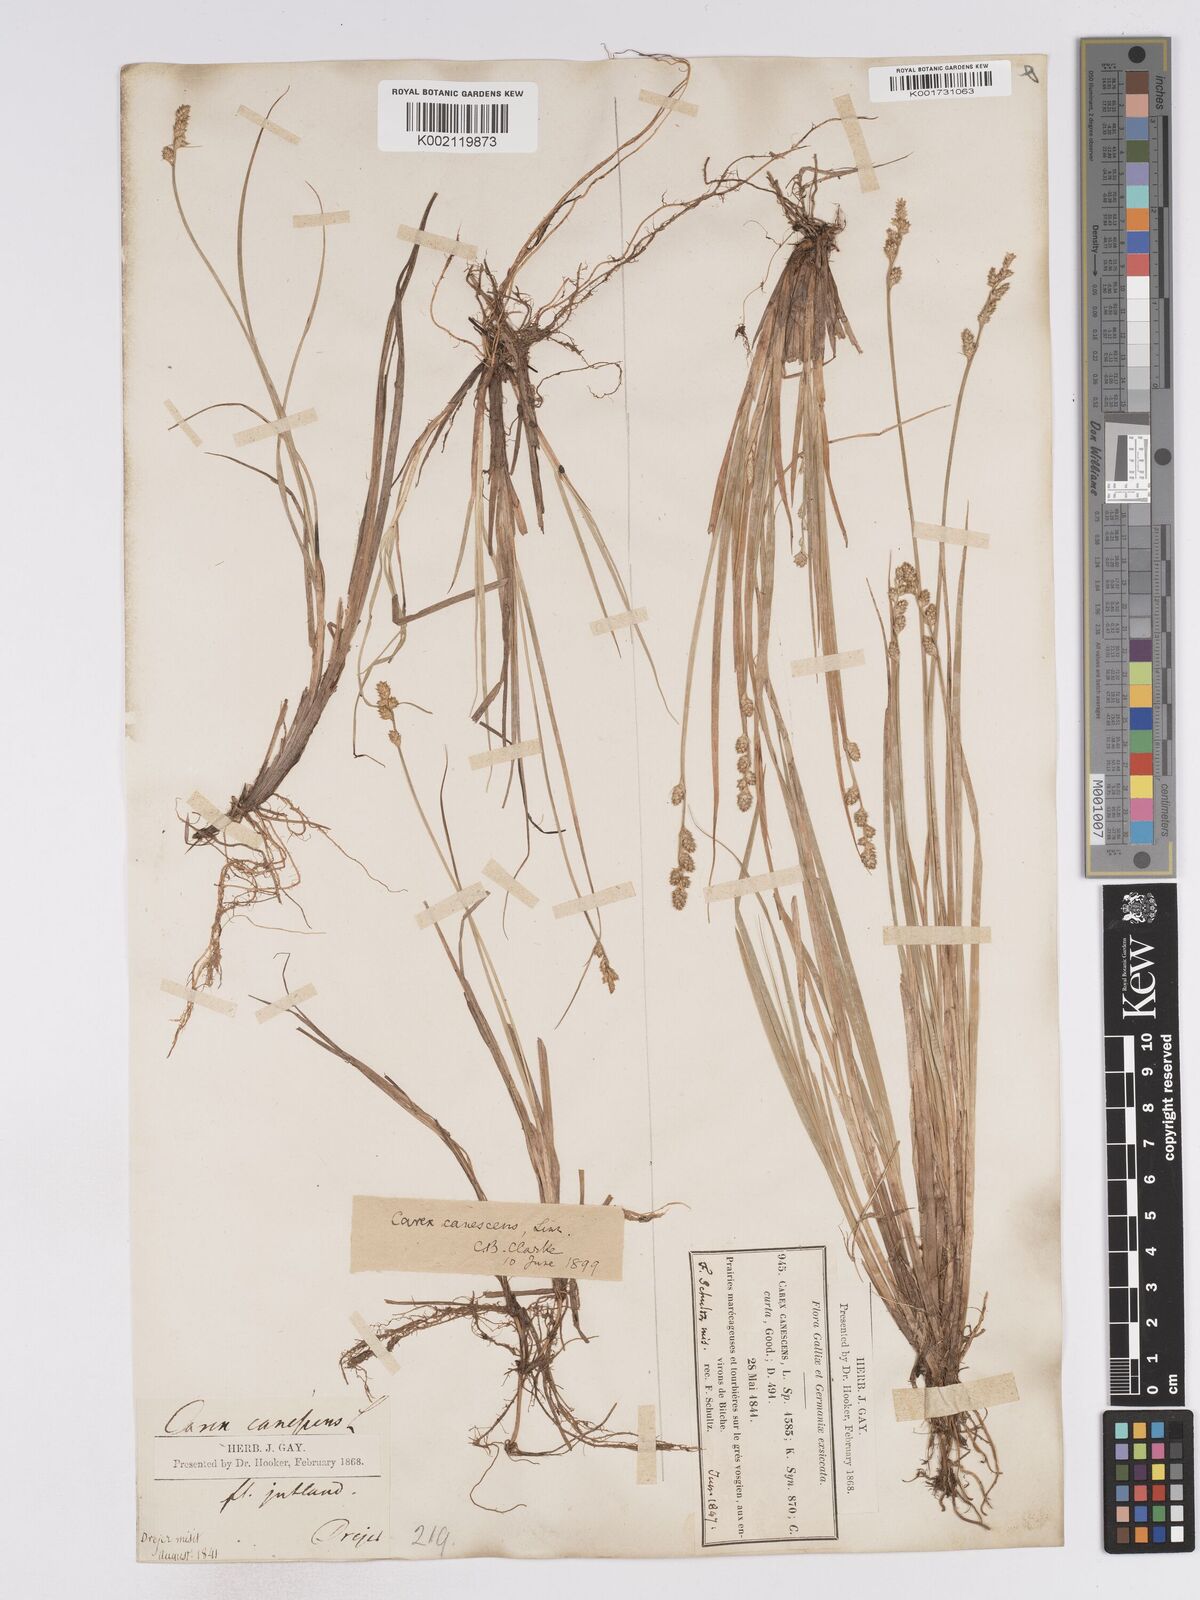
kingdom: Plantae
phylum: Tracheophyta
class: Liliopsida
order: Poales
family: Cyperaceae
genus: Carex
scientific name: Carex curta
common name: White sedge
